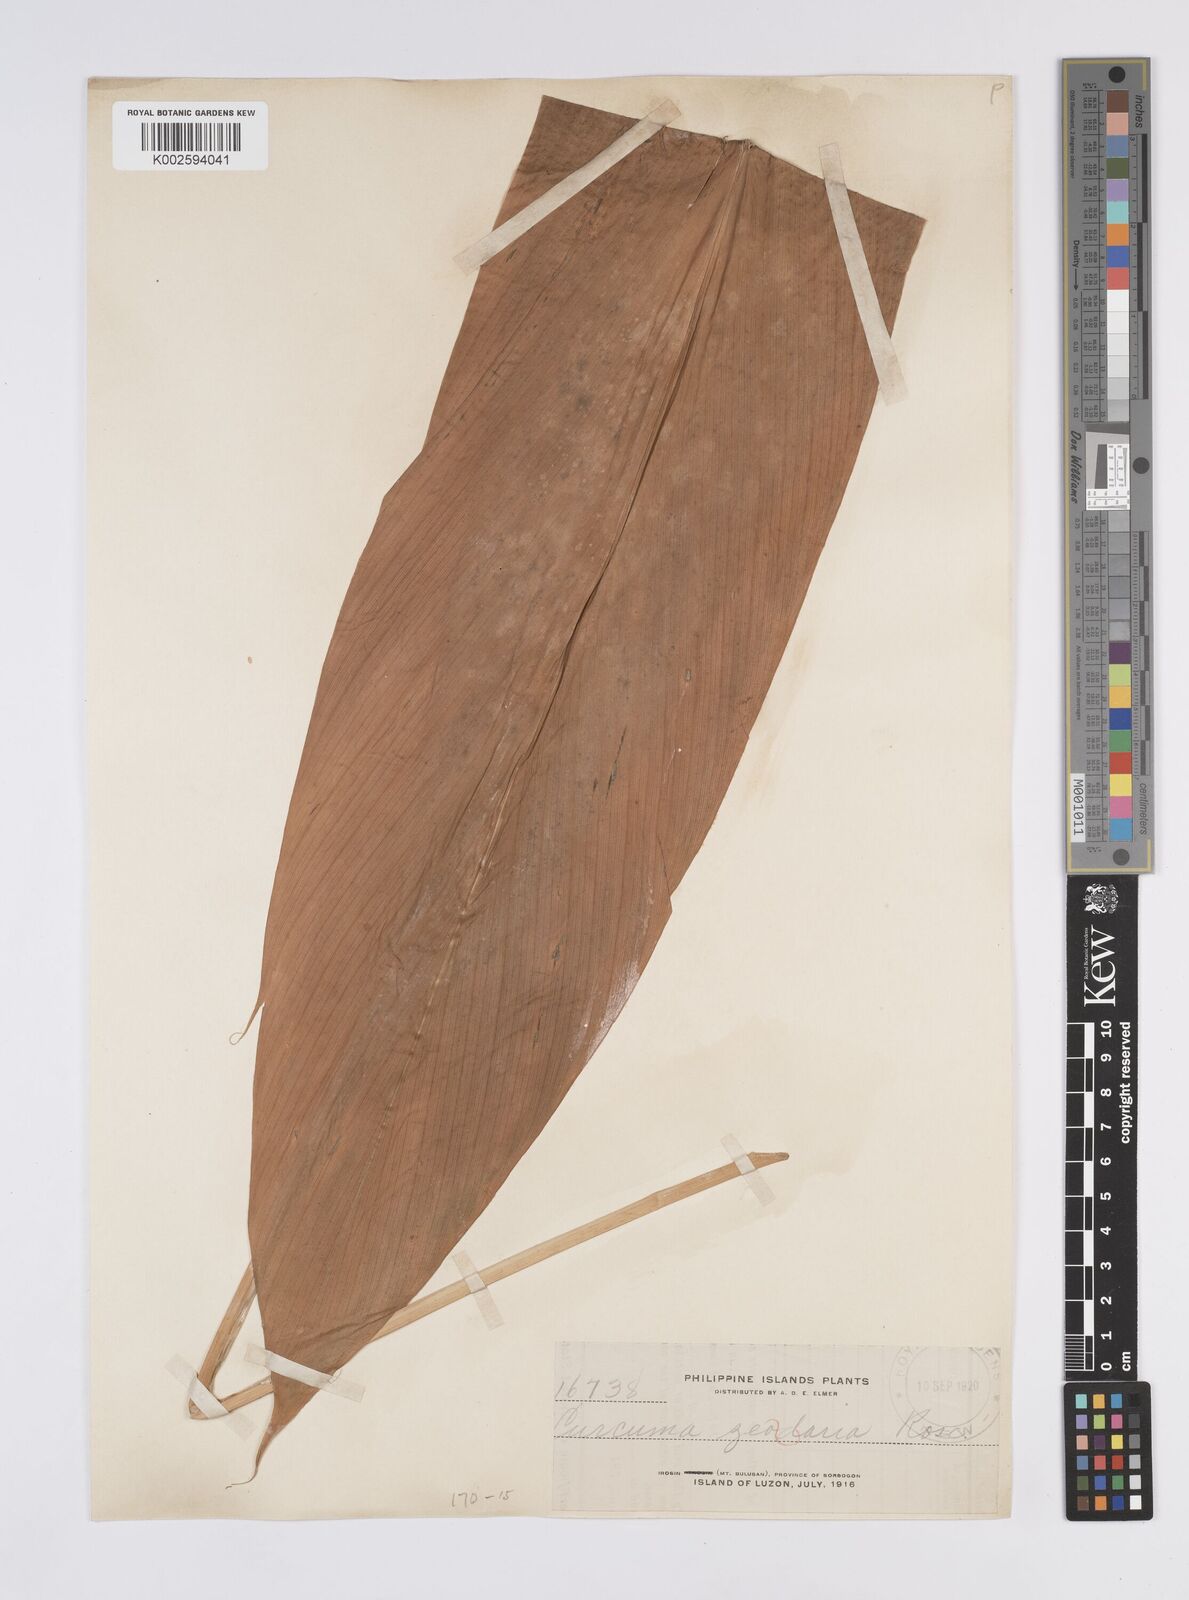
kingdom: Plantae
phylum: Tracheophyta
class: Liliopsida
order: Zingiberales
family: Zingiberaceae
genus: Curcuma
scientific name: Curcuma aromatica
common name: Wild turmeric
